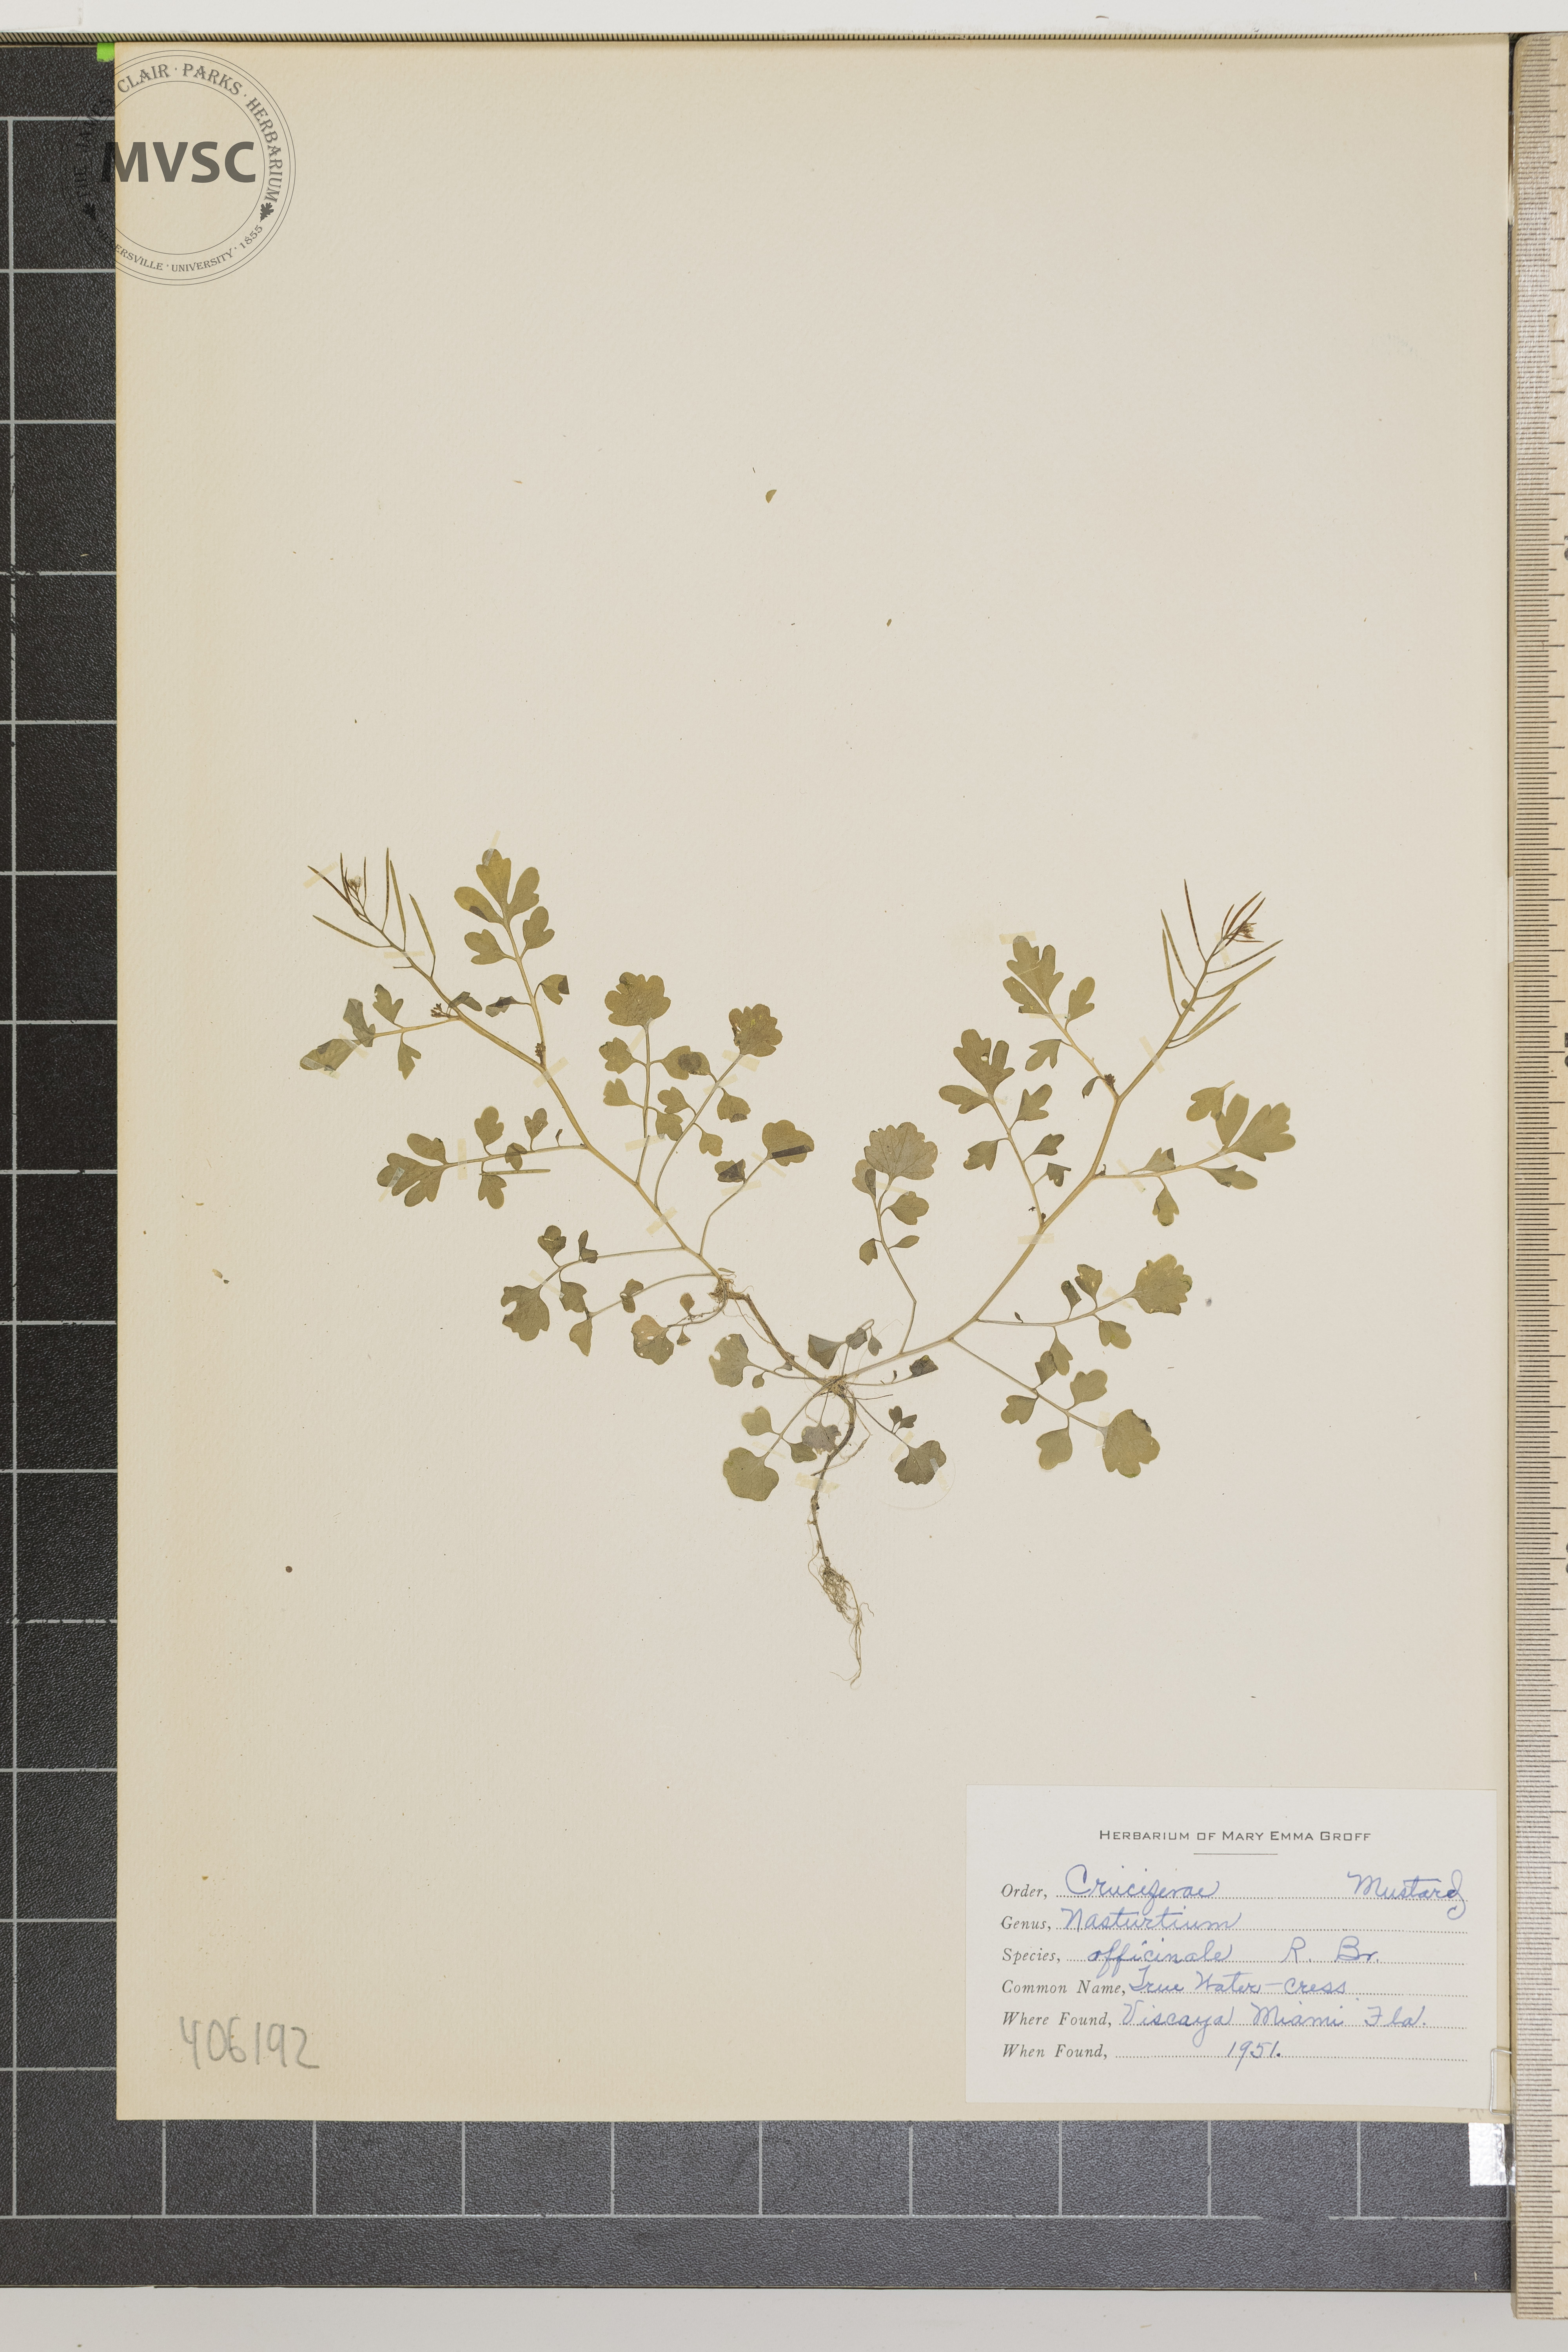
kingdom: Plantae
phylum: Tracheophyta
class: Magnoliopsida
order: Brassicales
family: Brassicaceae
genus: Nasturtium
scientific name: Nasturtium officinale
